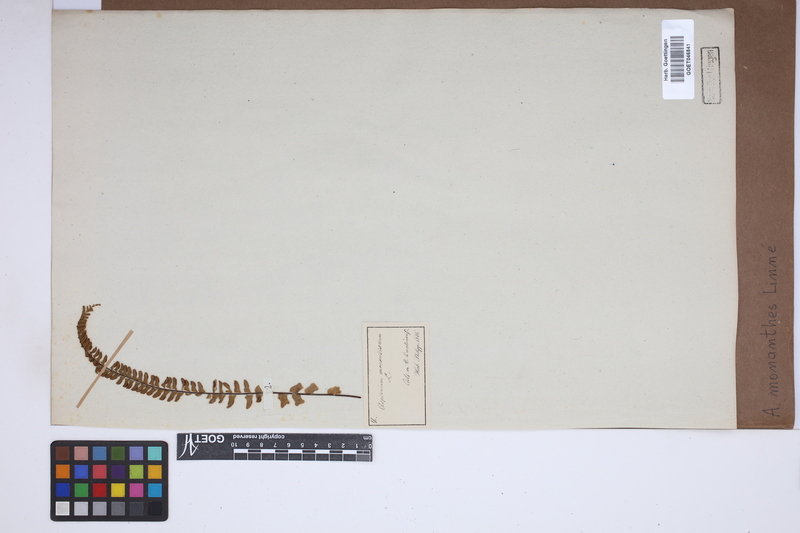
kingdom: Plantae
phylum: Tracheophyta
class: Polypodiopsida
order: Polypodiales
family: Aspleniaceae
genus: Asplenium
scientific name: Asplenium monanthes
